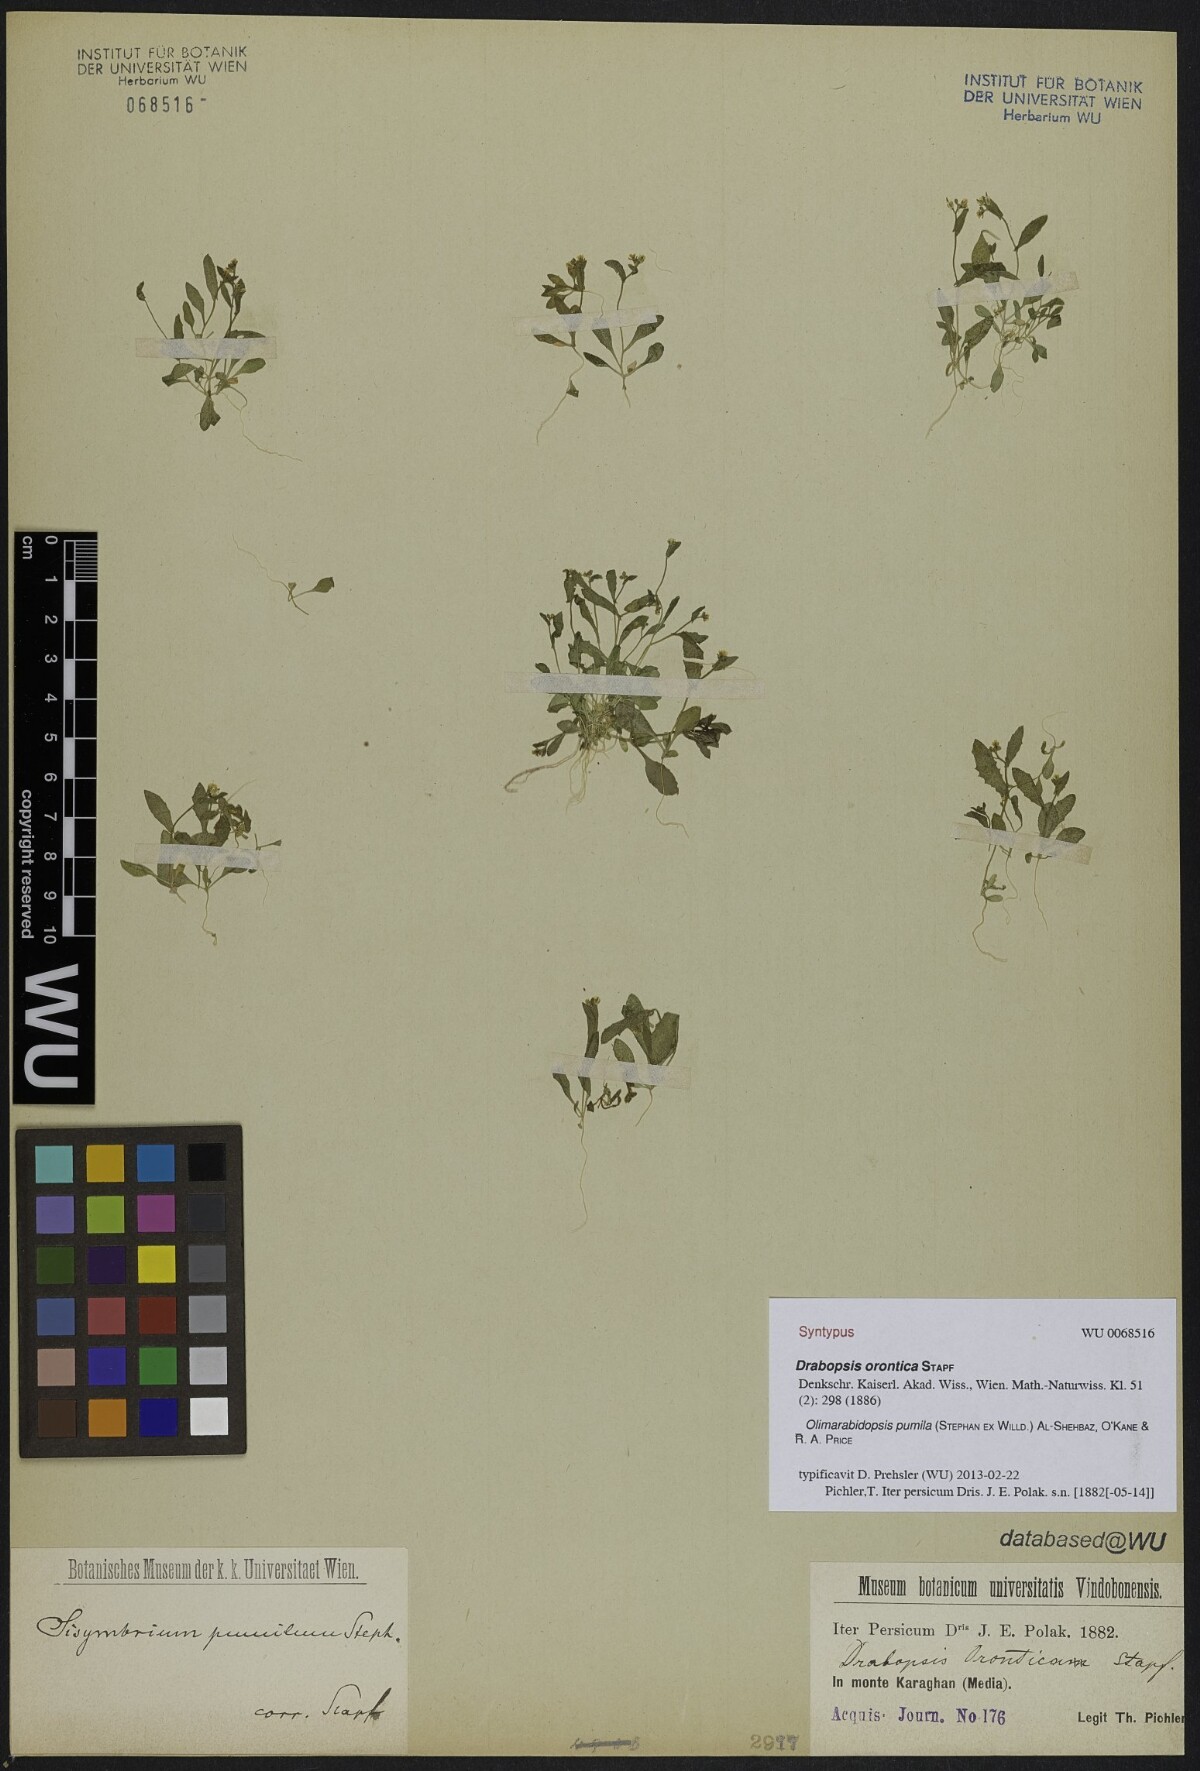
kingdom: Plantae
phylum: Tracheophyta
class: Magnoliopsida
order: Brassicales
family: Brassicaceae
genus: Sisymbrium
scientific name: Sisymbrium pumilum
